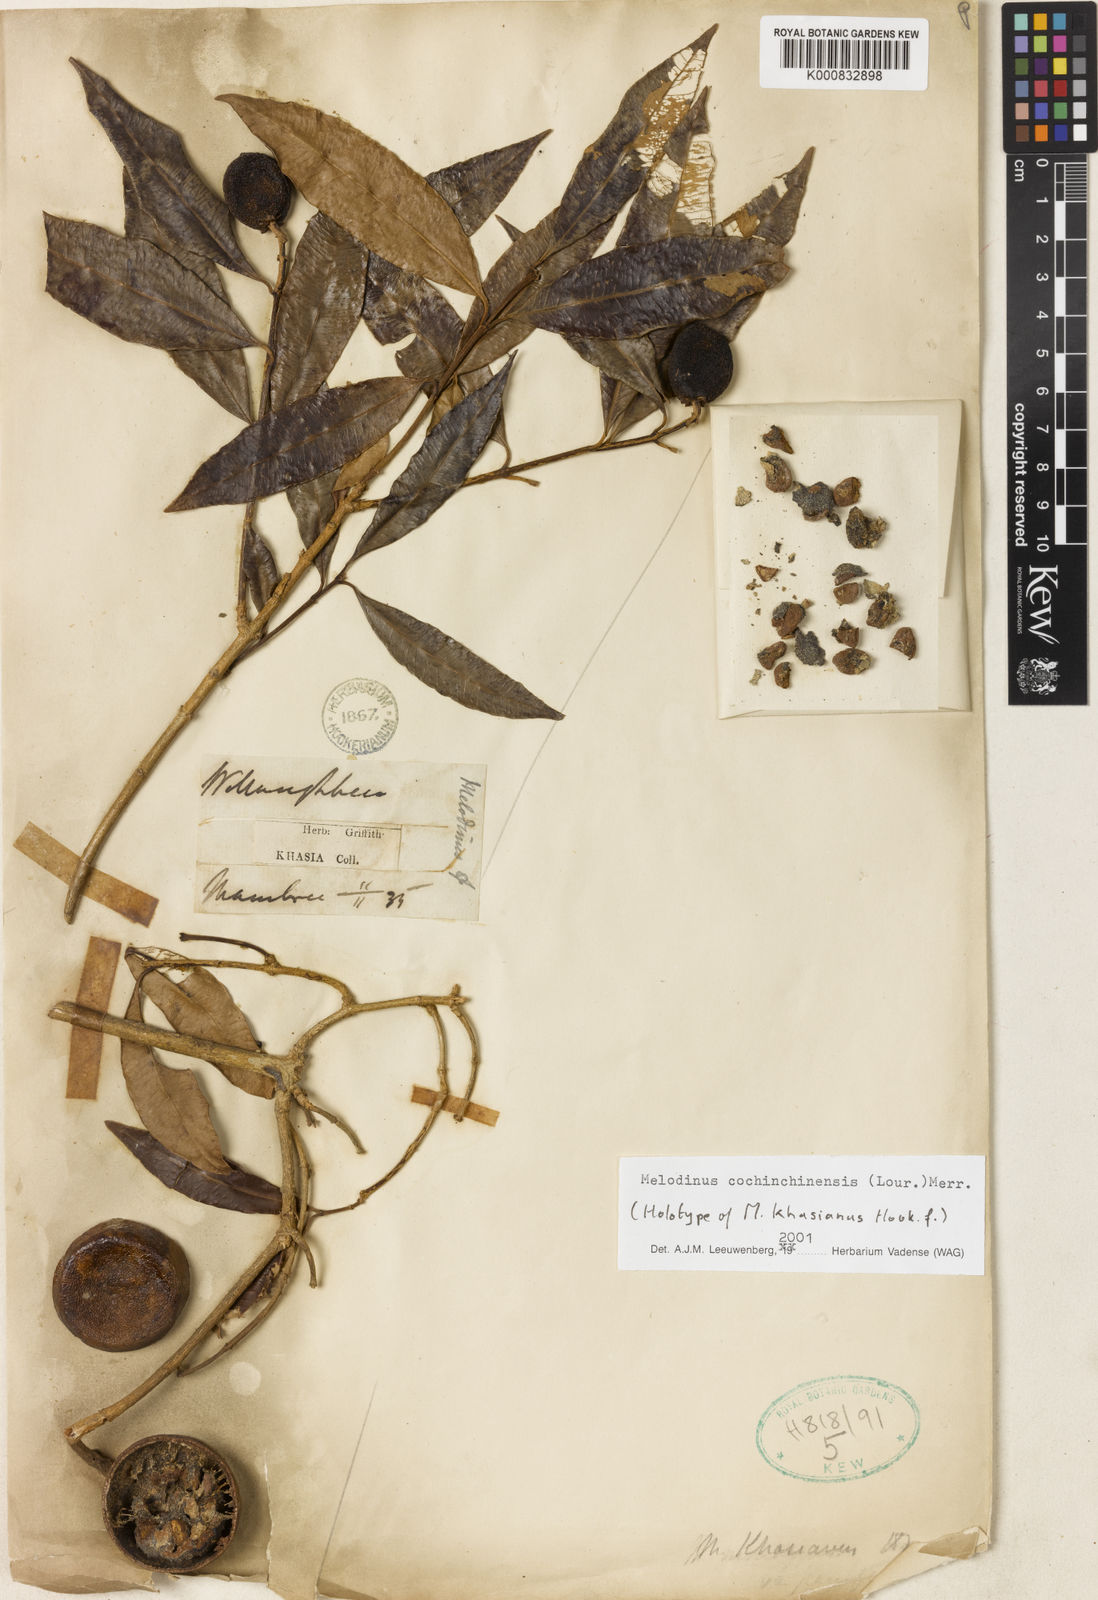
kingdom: Plantae
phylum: Tracheophyta
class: Magnoliopsida
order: Gentianales
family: Apocynaceae
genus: Melodinus
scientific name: Melodinus cochinchinensis
